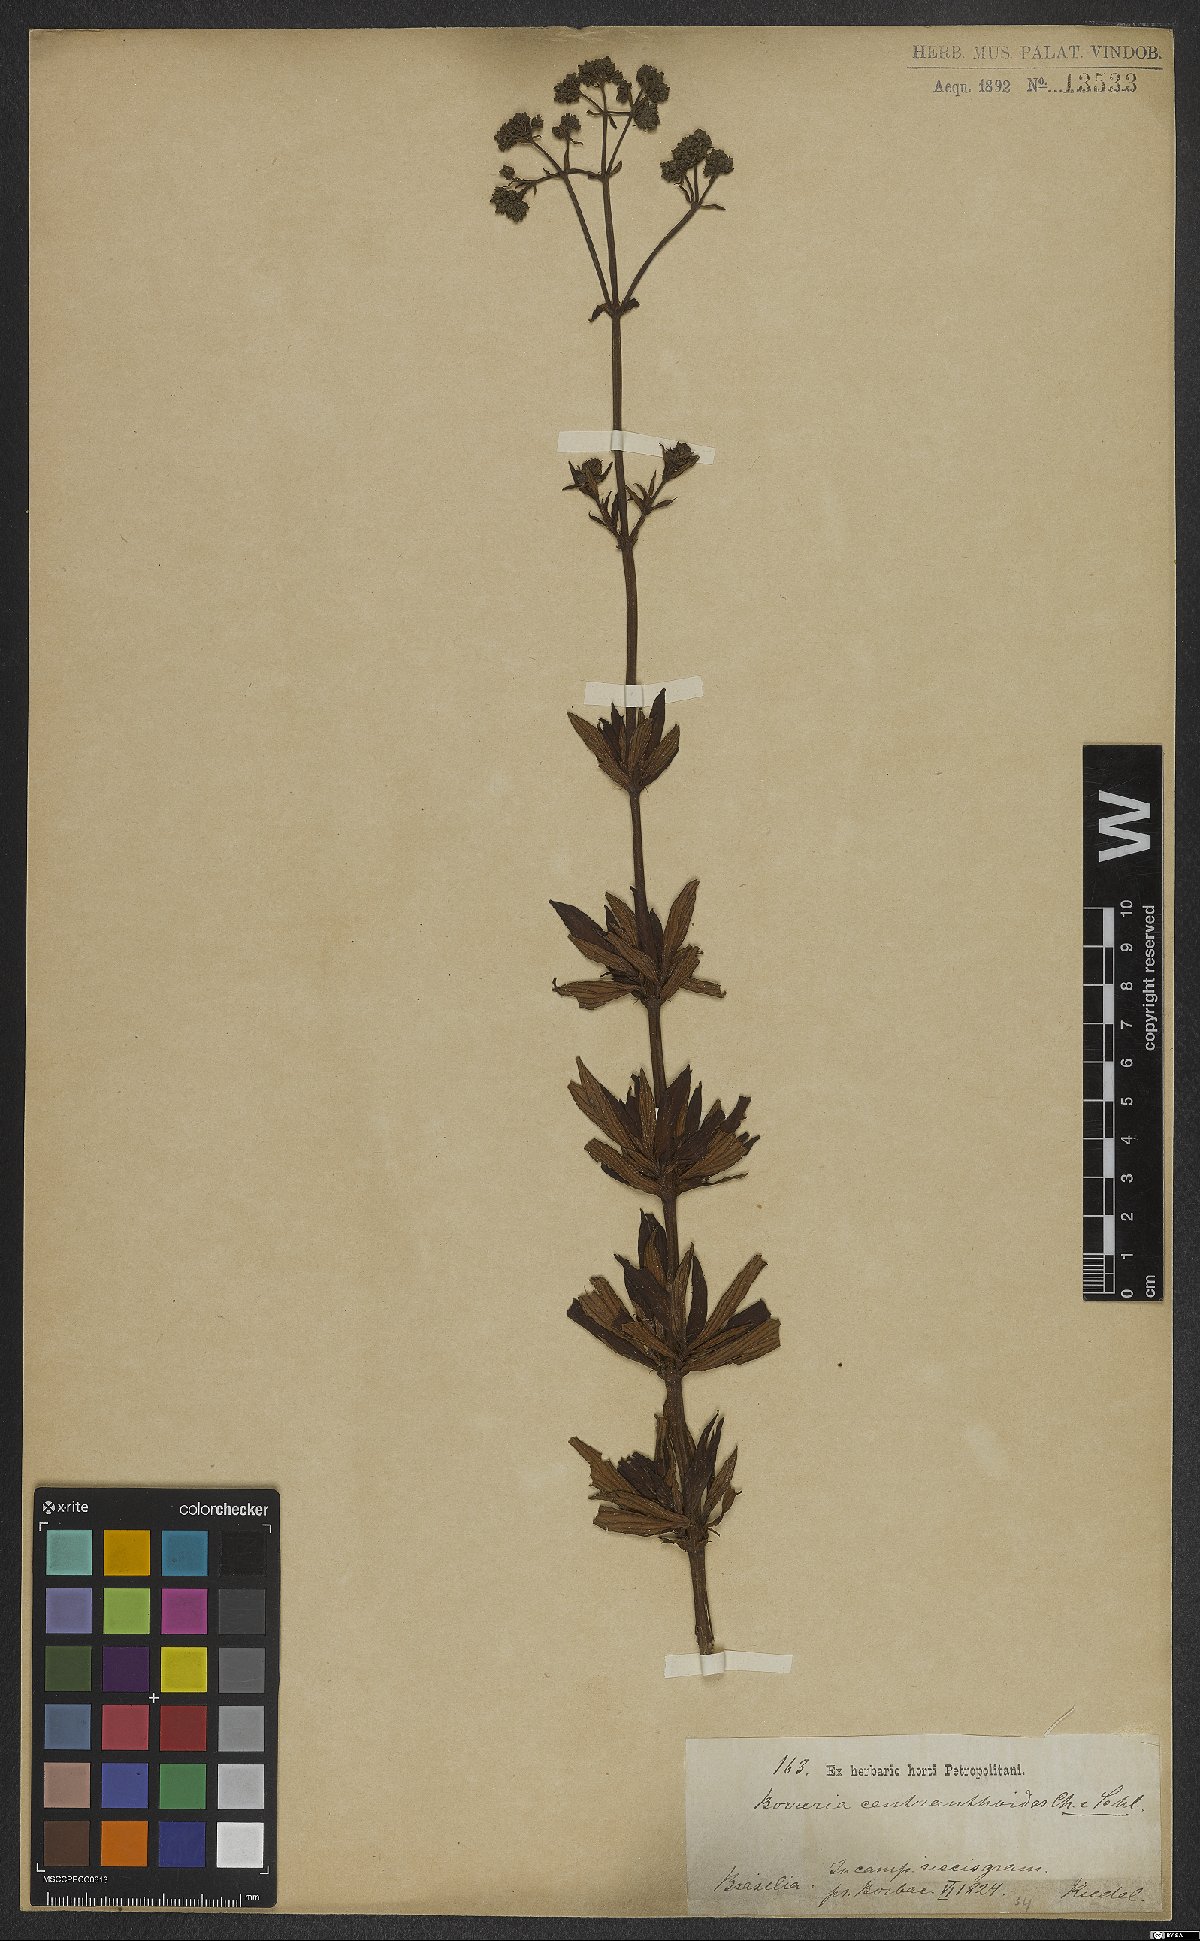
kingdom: Plantae
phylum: Tracheophyta
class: Magnoliopsida
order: Gentianales
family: Rubiaceae
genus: Galianthe
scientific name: Galianthe centranthoides
